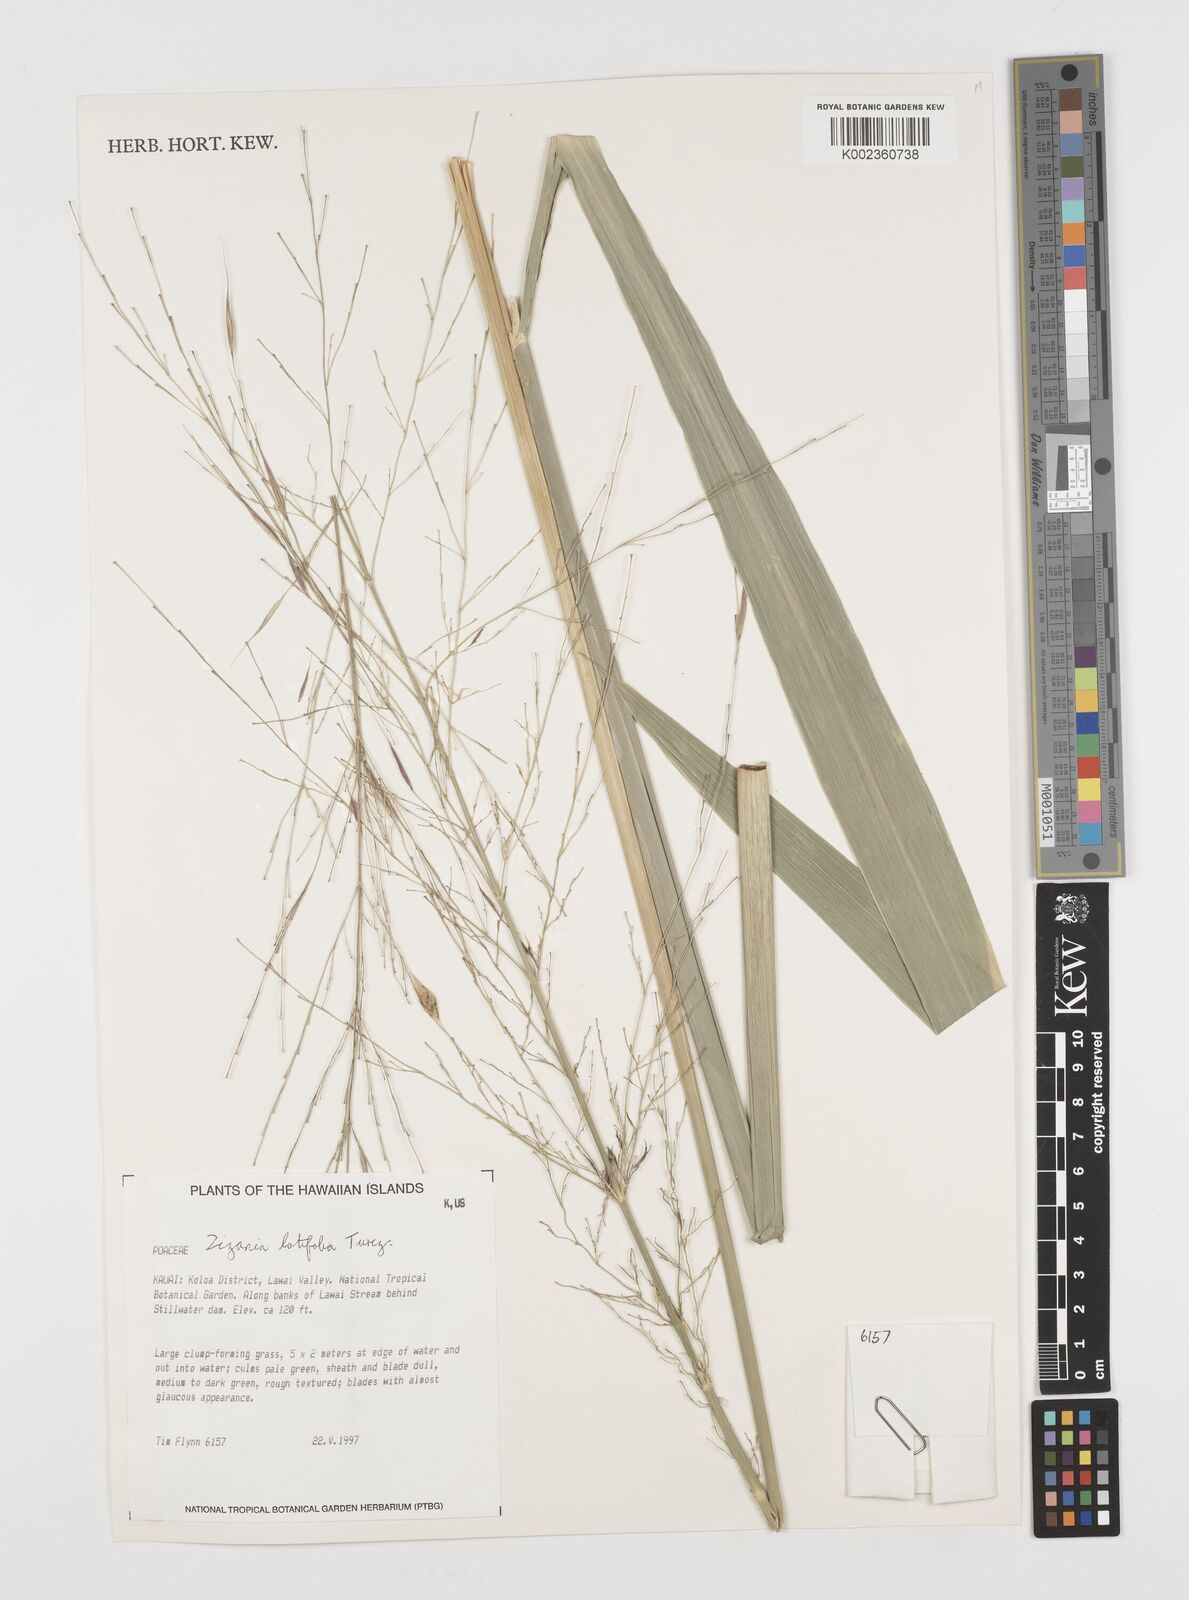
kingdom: Plantae
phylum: Tracheophyta
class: Liliopsida
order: Poales
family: Poaceae
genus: Zizania
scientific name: Zizania latifolia
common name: Manchurian wildrice
